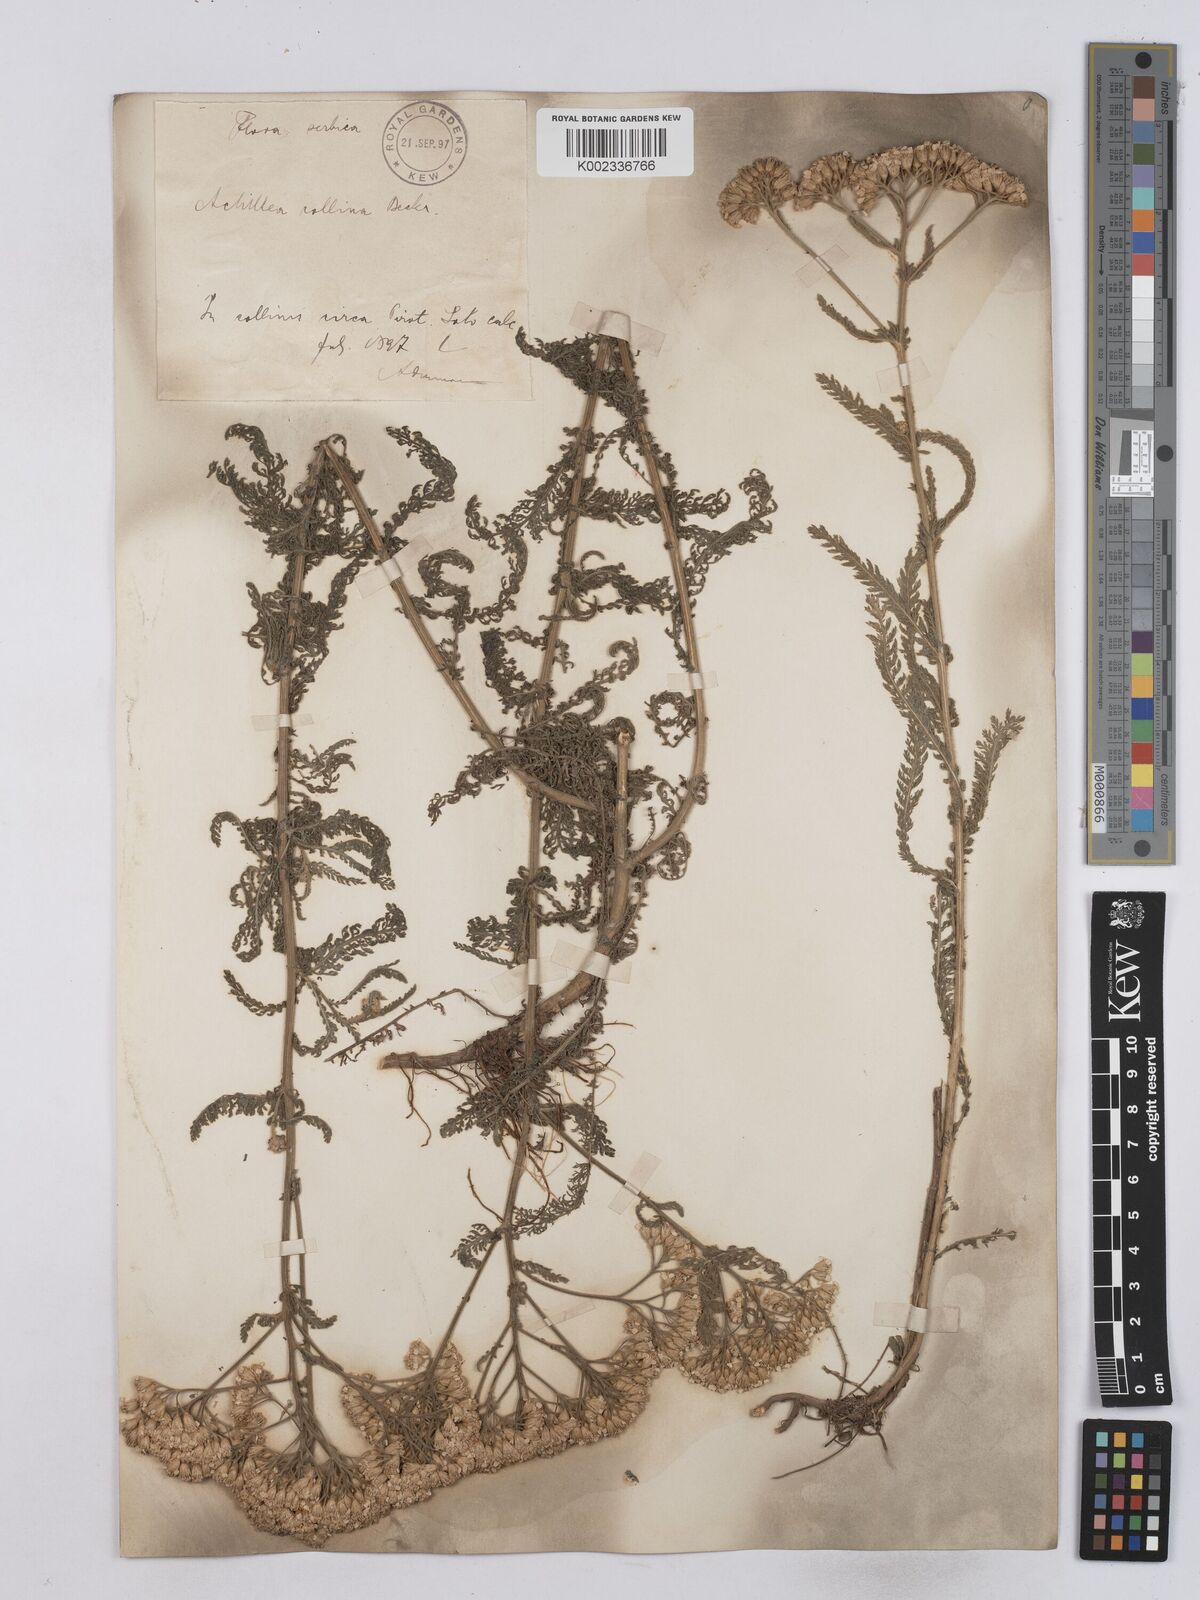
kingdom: Plantae
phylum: Tracheophyta
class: Magnoliopsida
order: Asterales
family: Asteraceae
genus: Achillea
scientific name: Achillea collina
